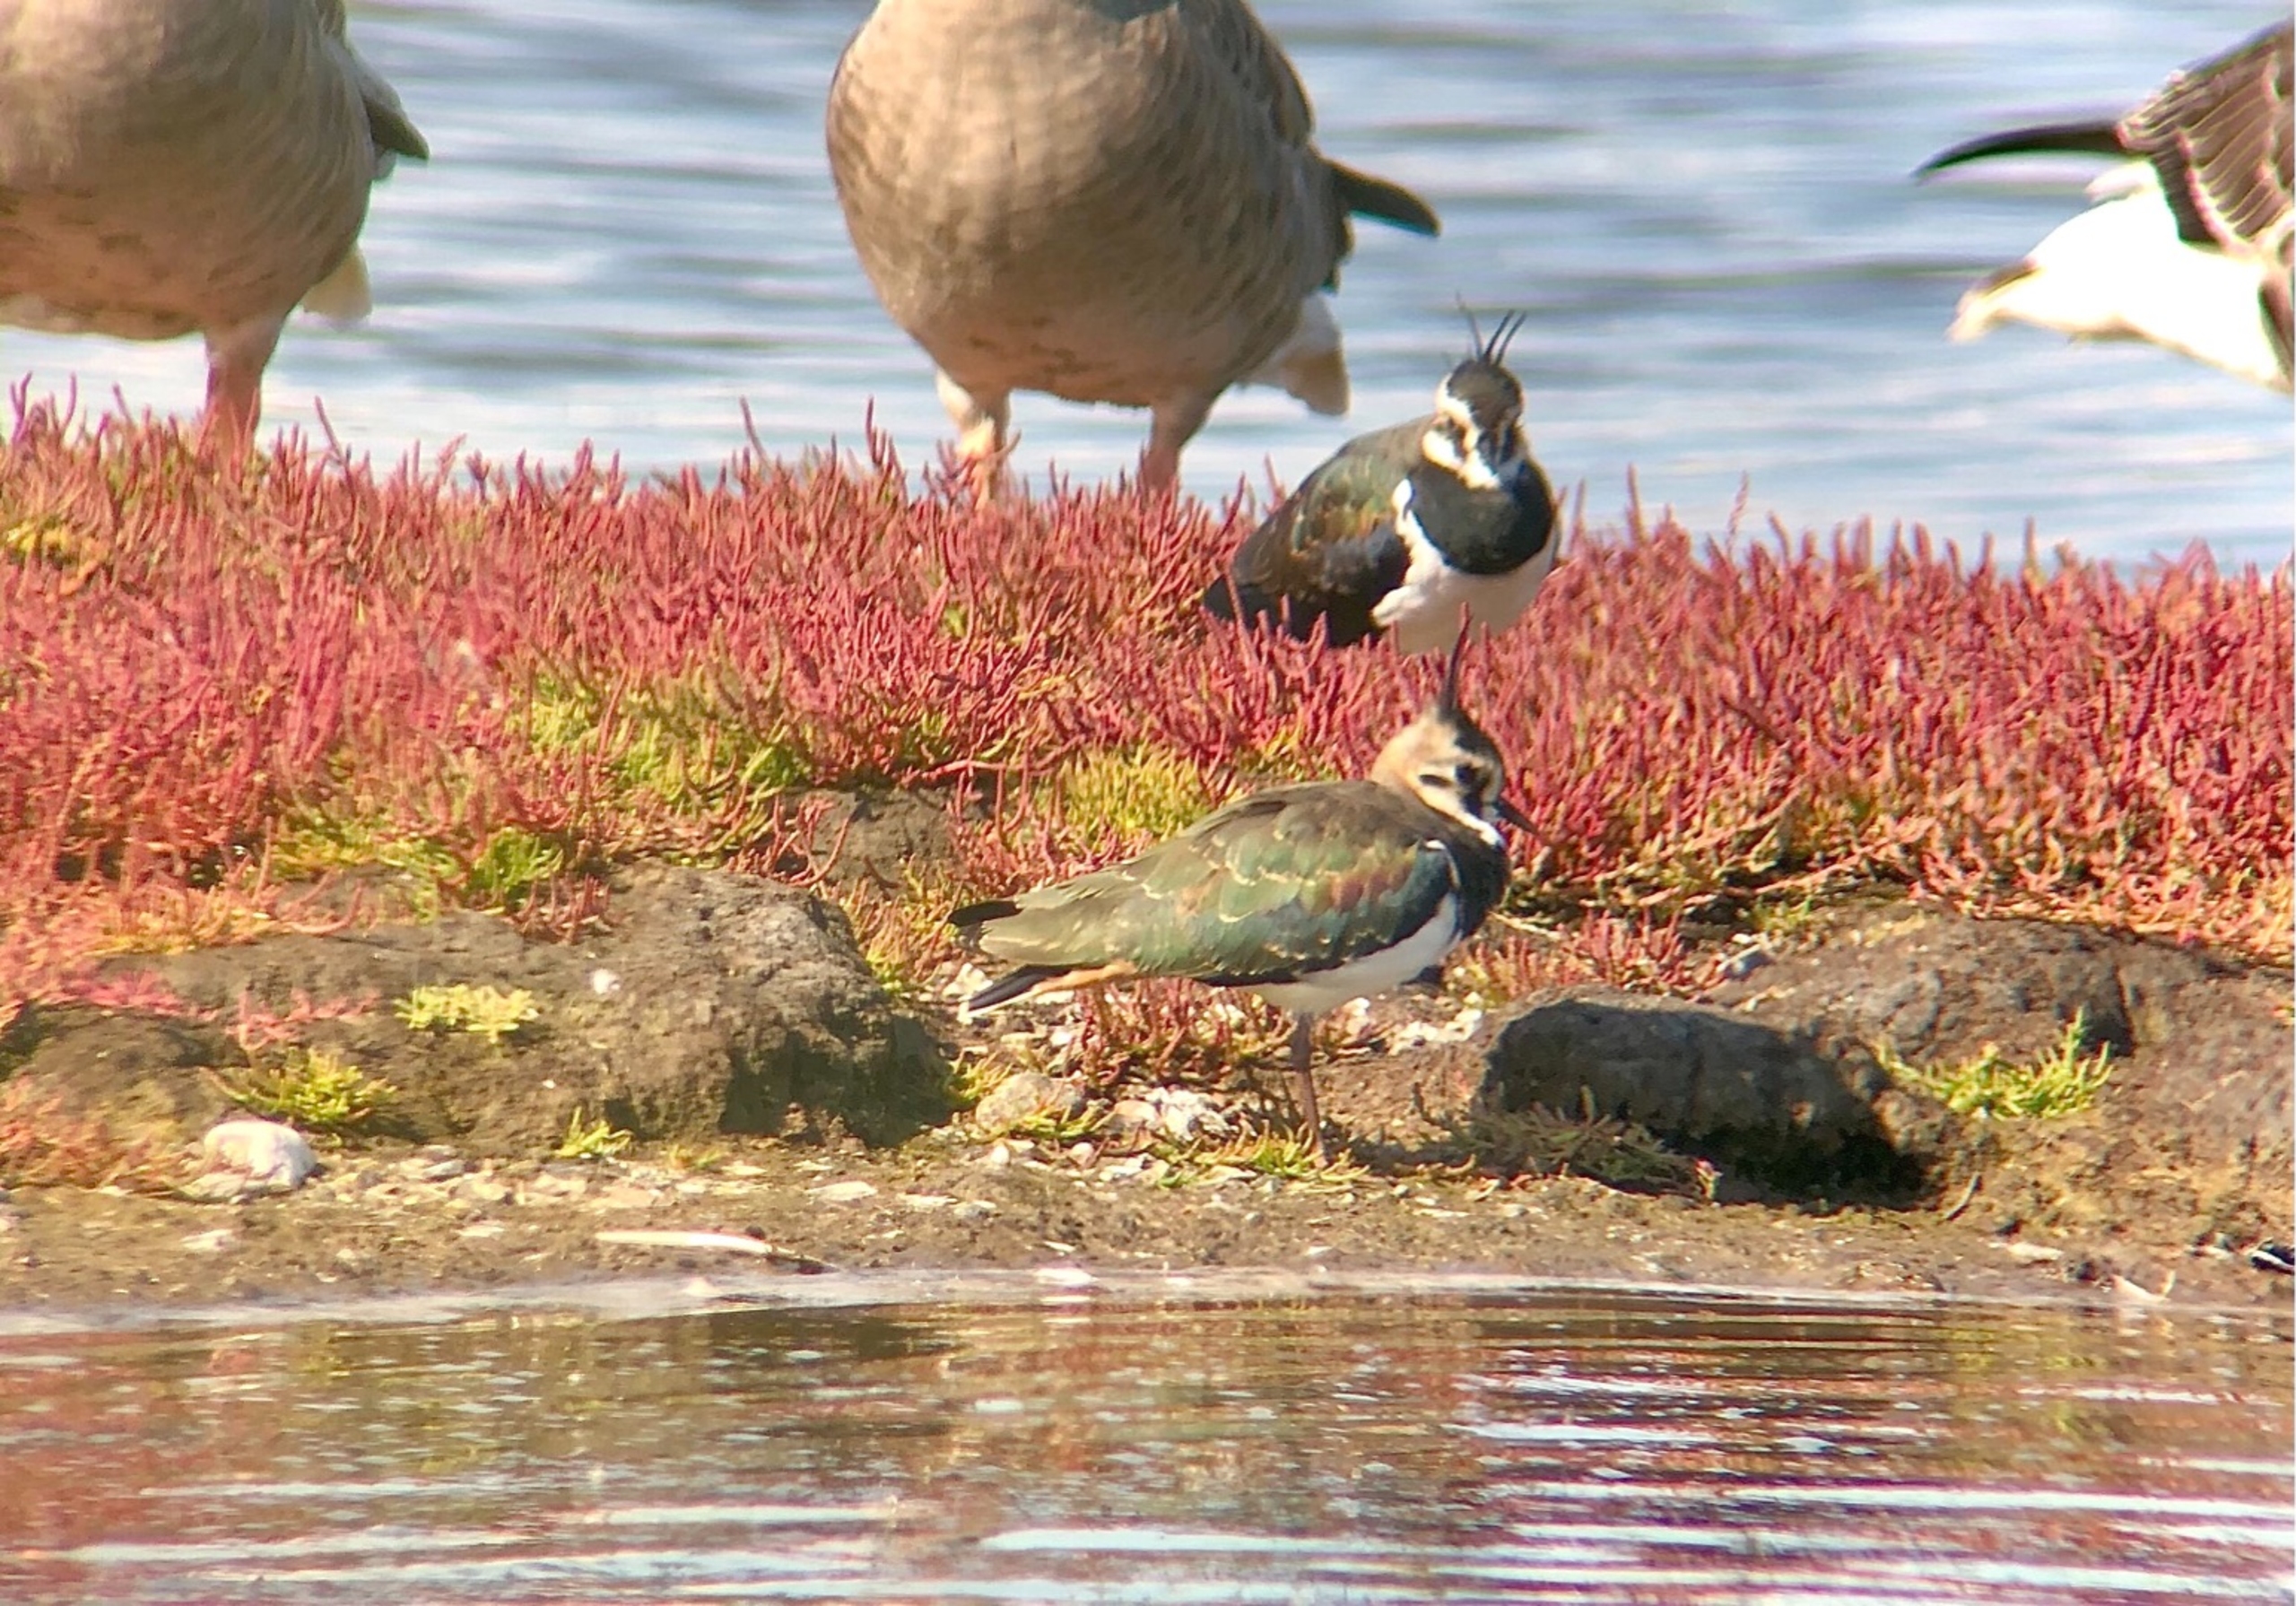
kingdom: Animalia
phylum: Chordata
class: Aves
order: Charadriiformes
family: Charadriidae
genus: Vanellus
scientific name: Vanellus vanellus
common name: Vibe
